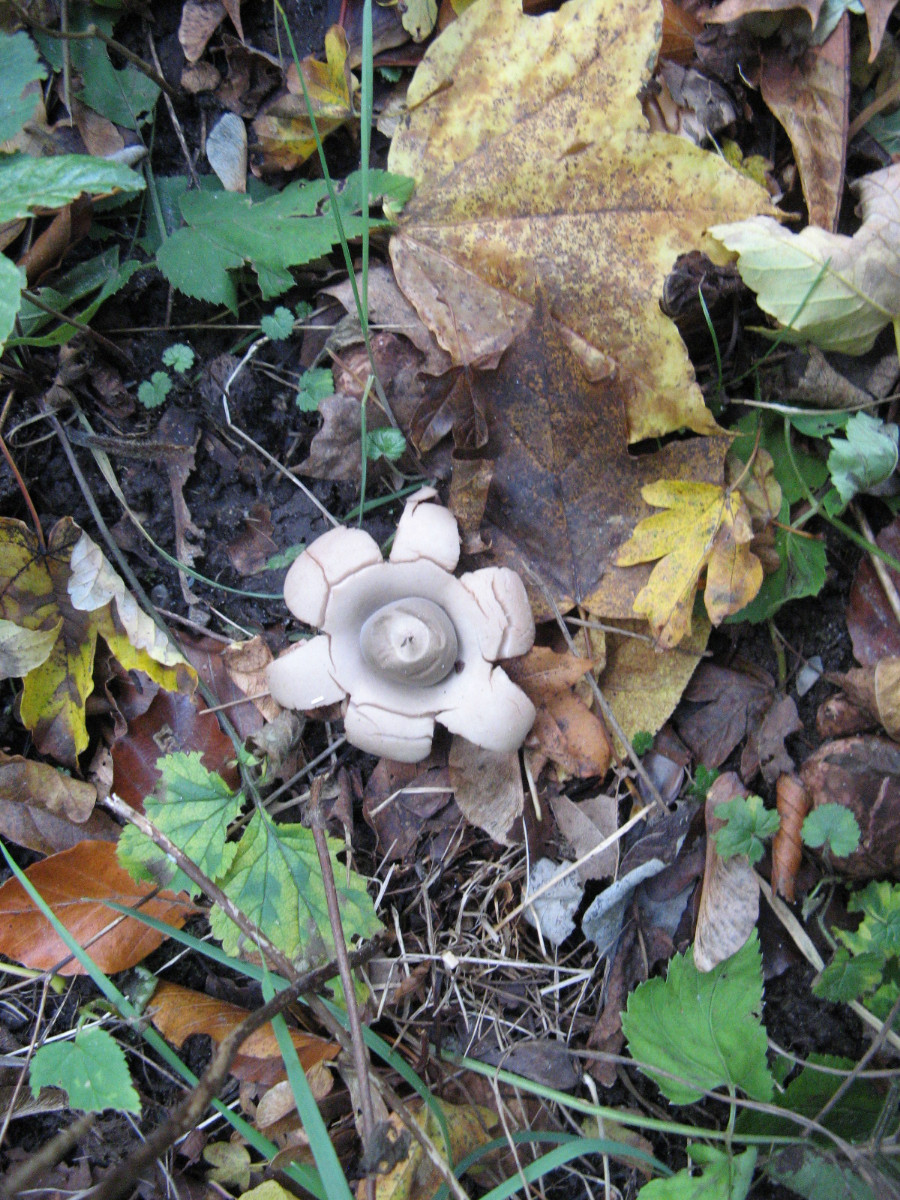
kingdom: Fungi
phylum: Basidiomycota
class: Agaricomycetes
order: Geastrales
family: Geastraceae
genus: Geastrum
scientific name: Geastrum michelianum
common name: kødet stjernebold
